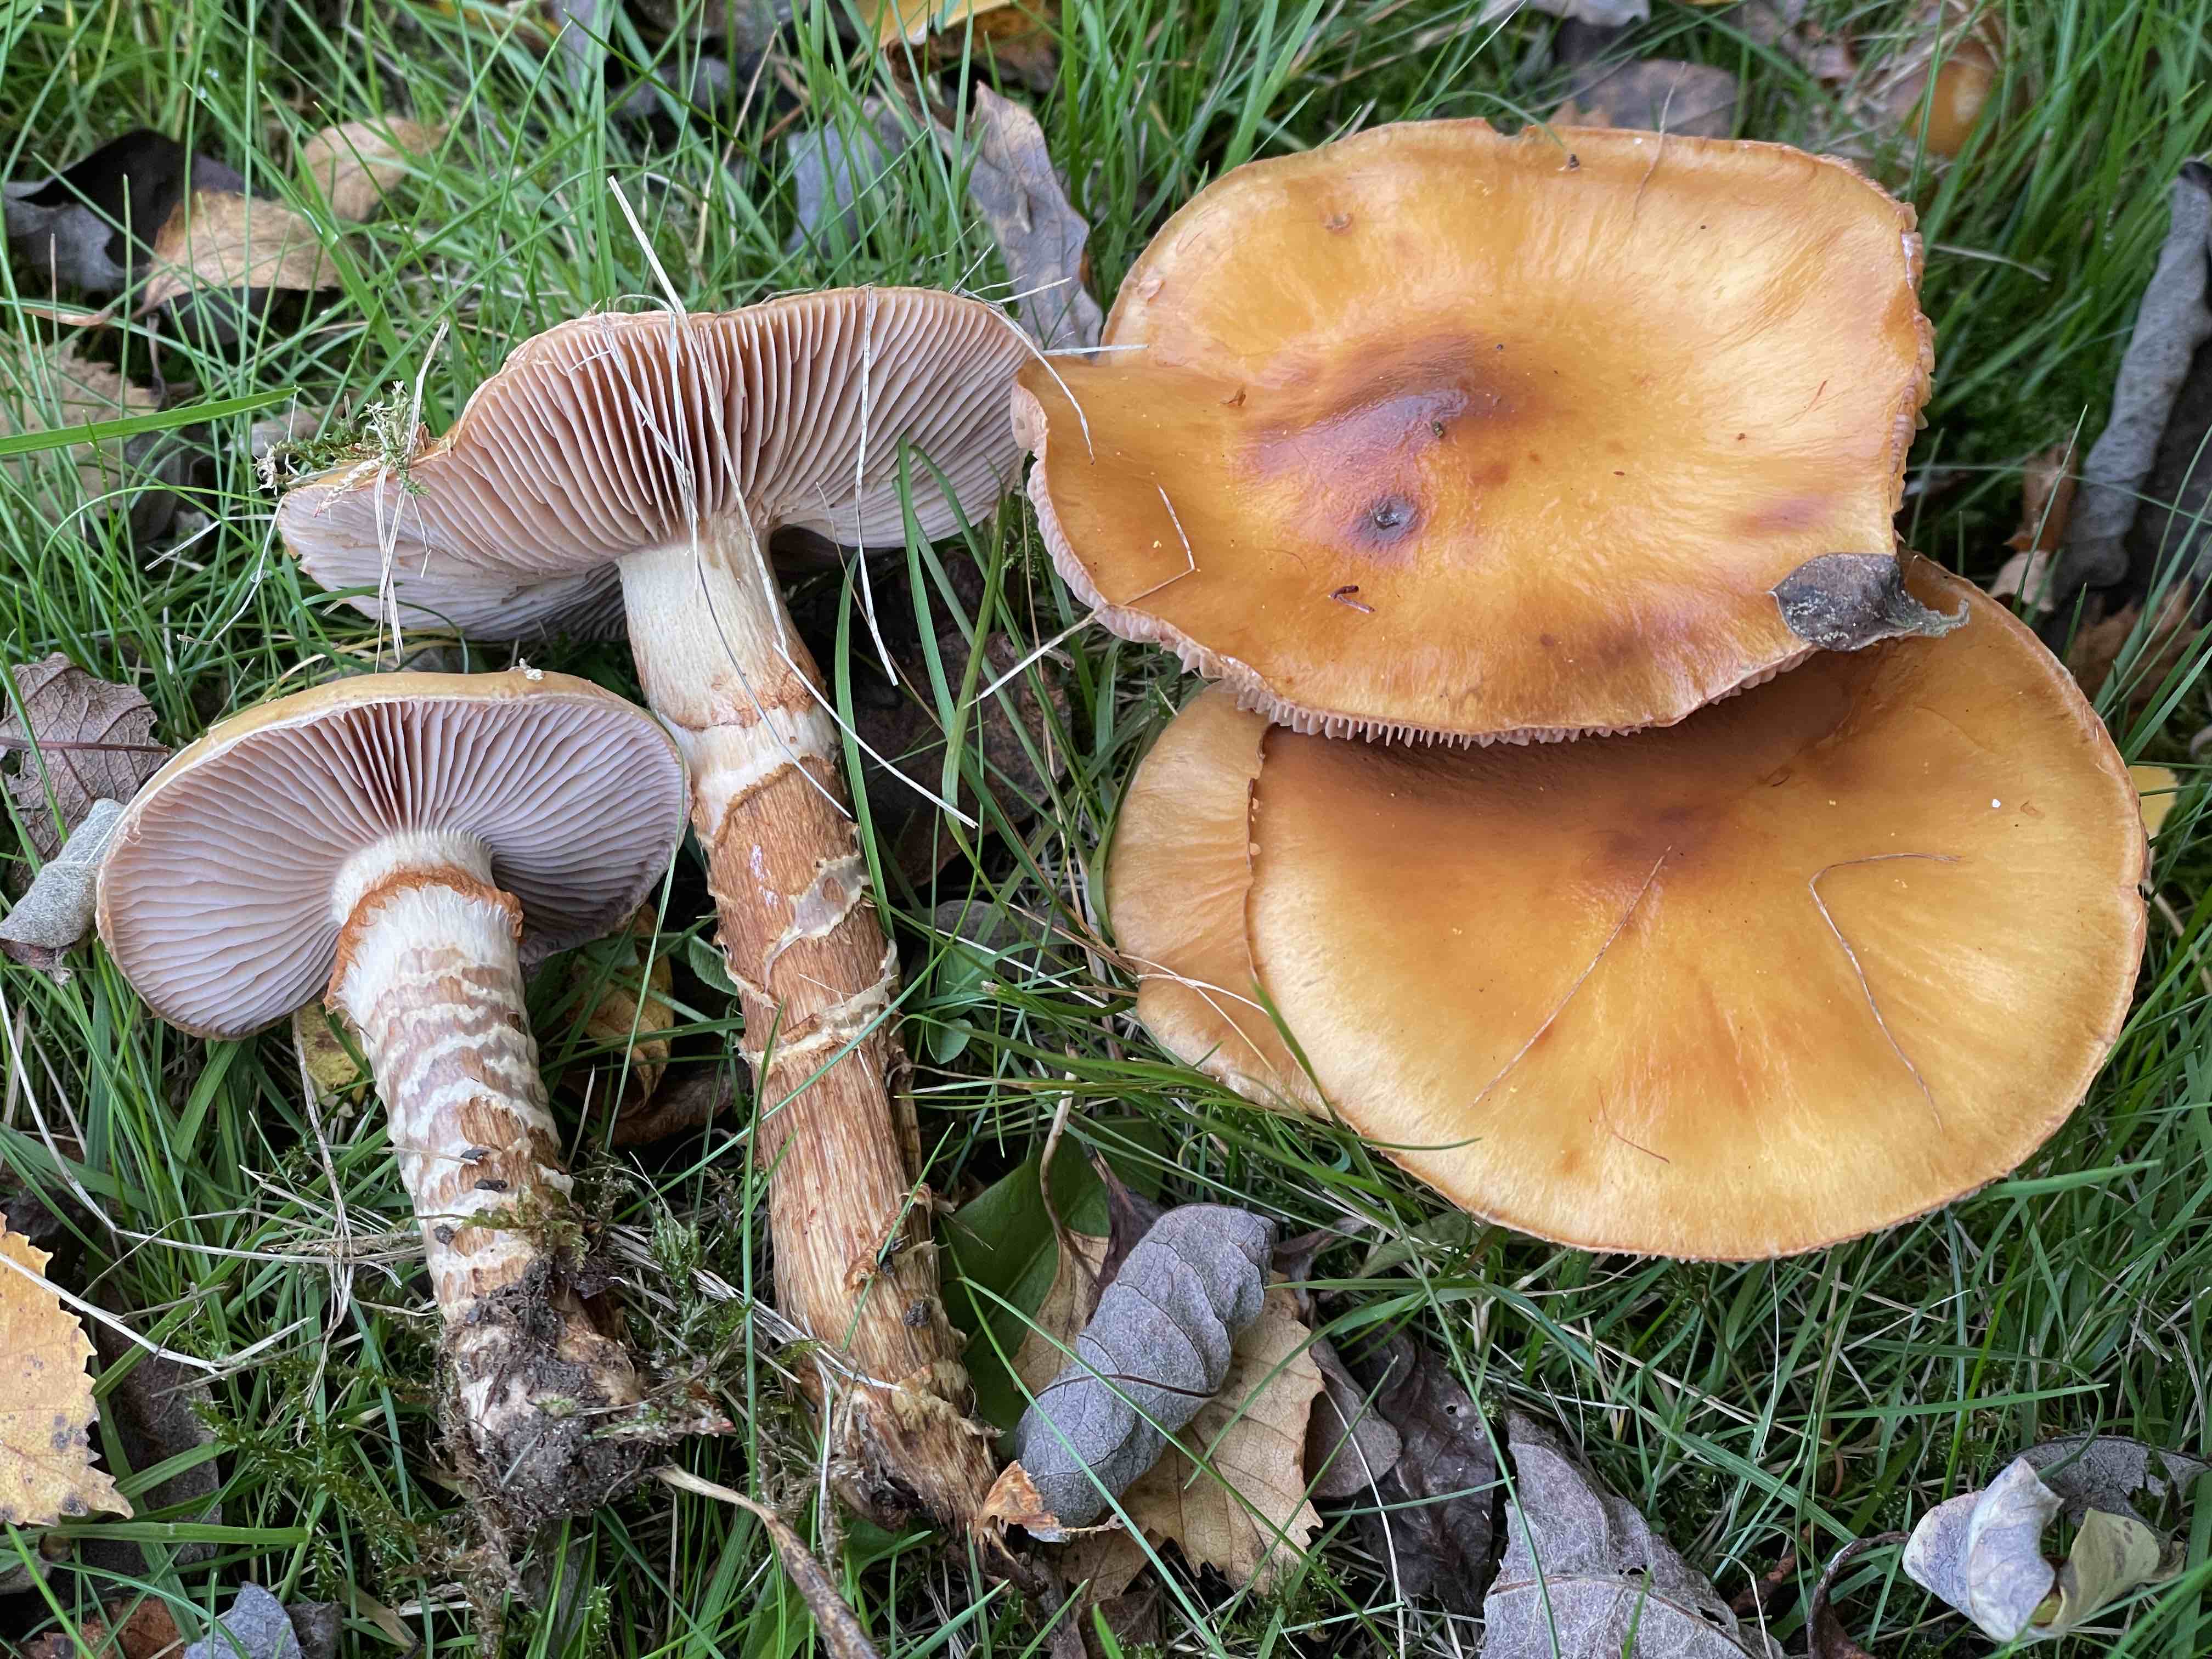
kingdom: Fungi
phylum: Basidiomycota
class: Agaricomycetes
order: Agaricales
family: Cortinariaceae
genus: Cortinarius
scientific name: Cortinarius trivialis
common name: Girdled webcap
